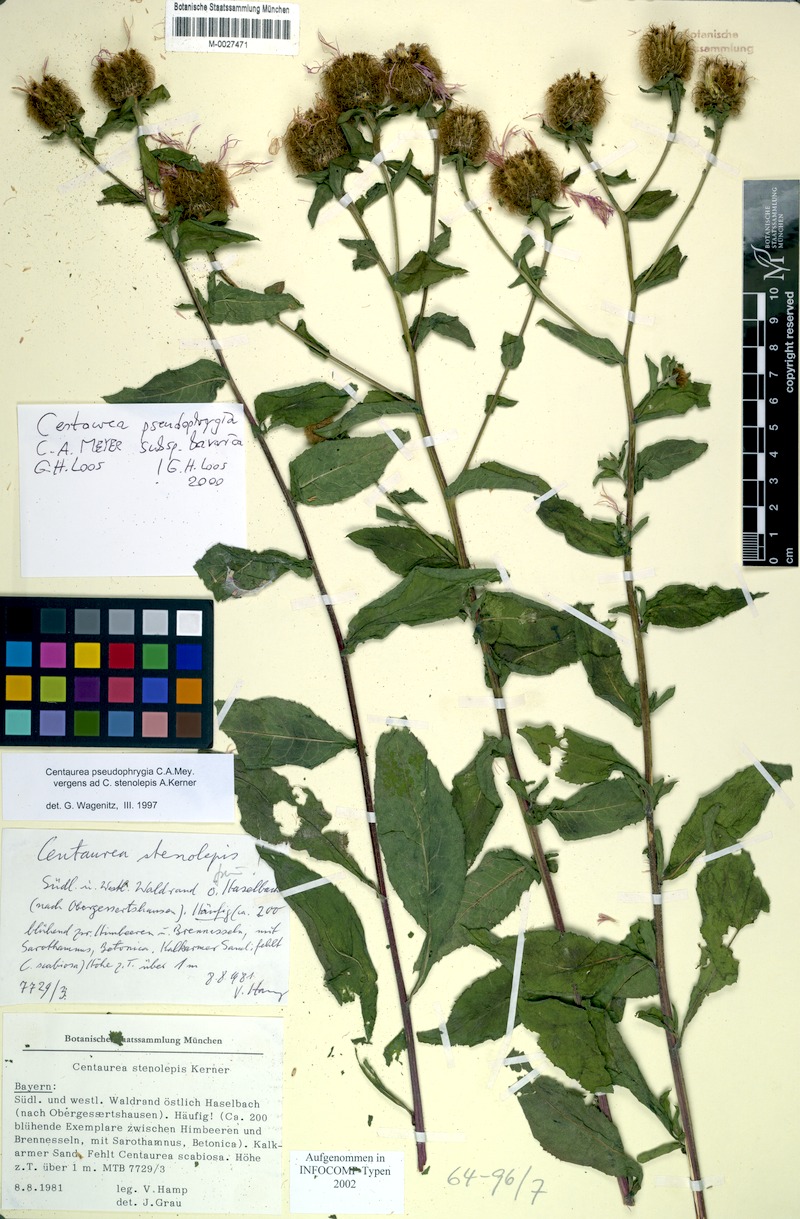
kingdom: Plantae
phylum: Tracheophyta
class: Magnoliopsida
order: Asterales
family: Asteraceae
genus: Centaurea
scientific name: Centaurea stenolepis
